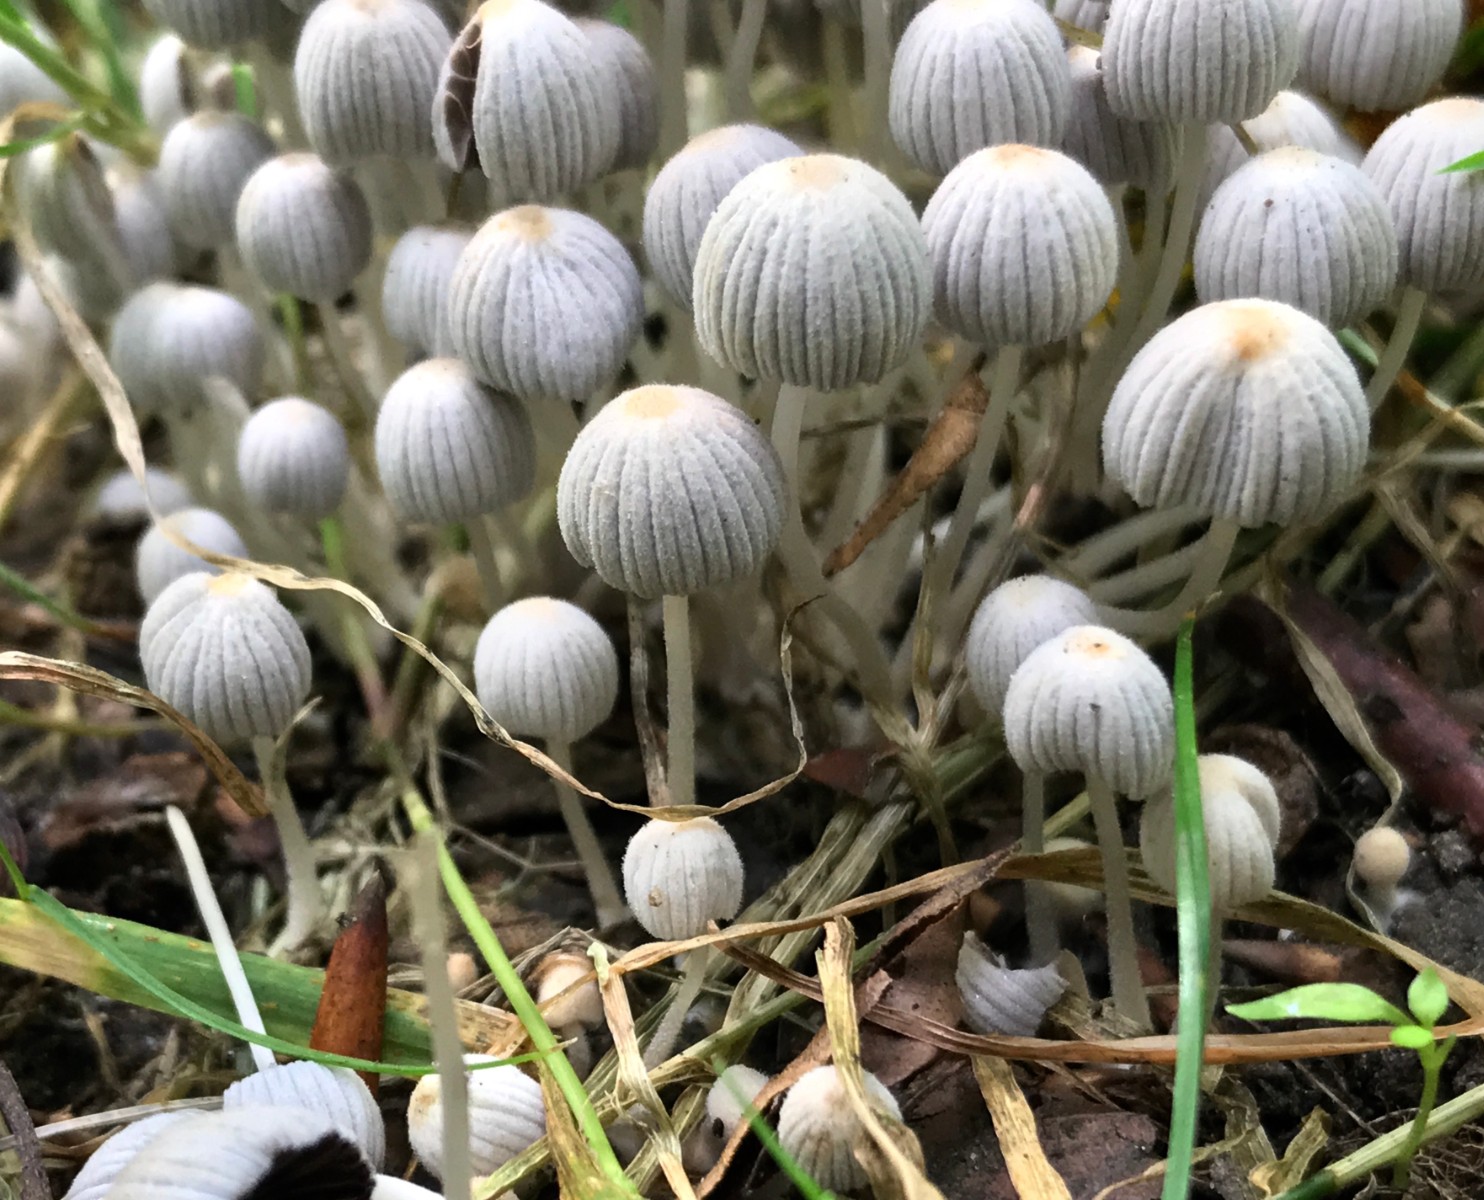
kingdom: Fungi
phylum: Basidiomycota
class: Agaricomycetes
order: Agaricales
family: Psathyrellaceae
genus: Coprinellus
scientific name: Coprinellus disseminatus
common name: bredsået blækhat
